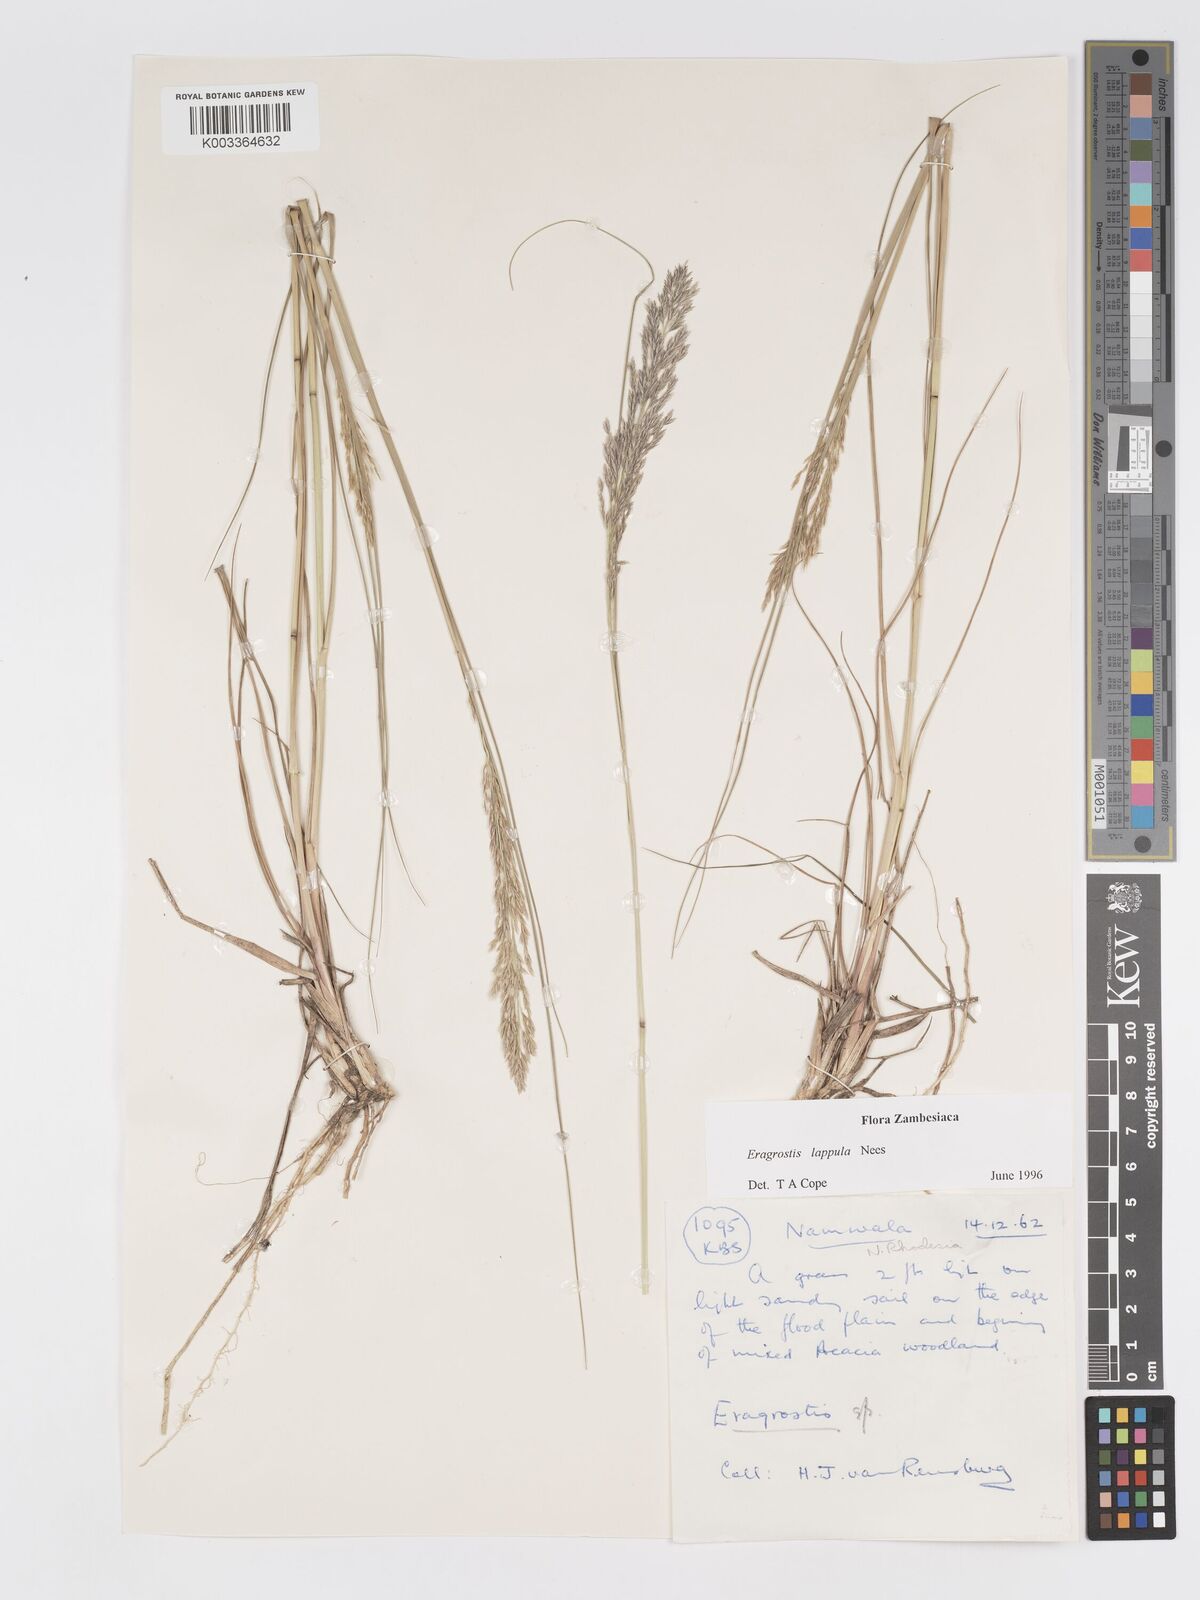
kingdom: Plantae
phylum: Tracheophyta
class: Liliopsida
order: Poales
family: Poaceae
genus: Eragrostis
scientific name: Eragrostis lappula
